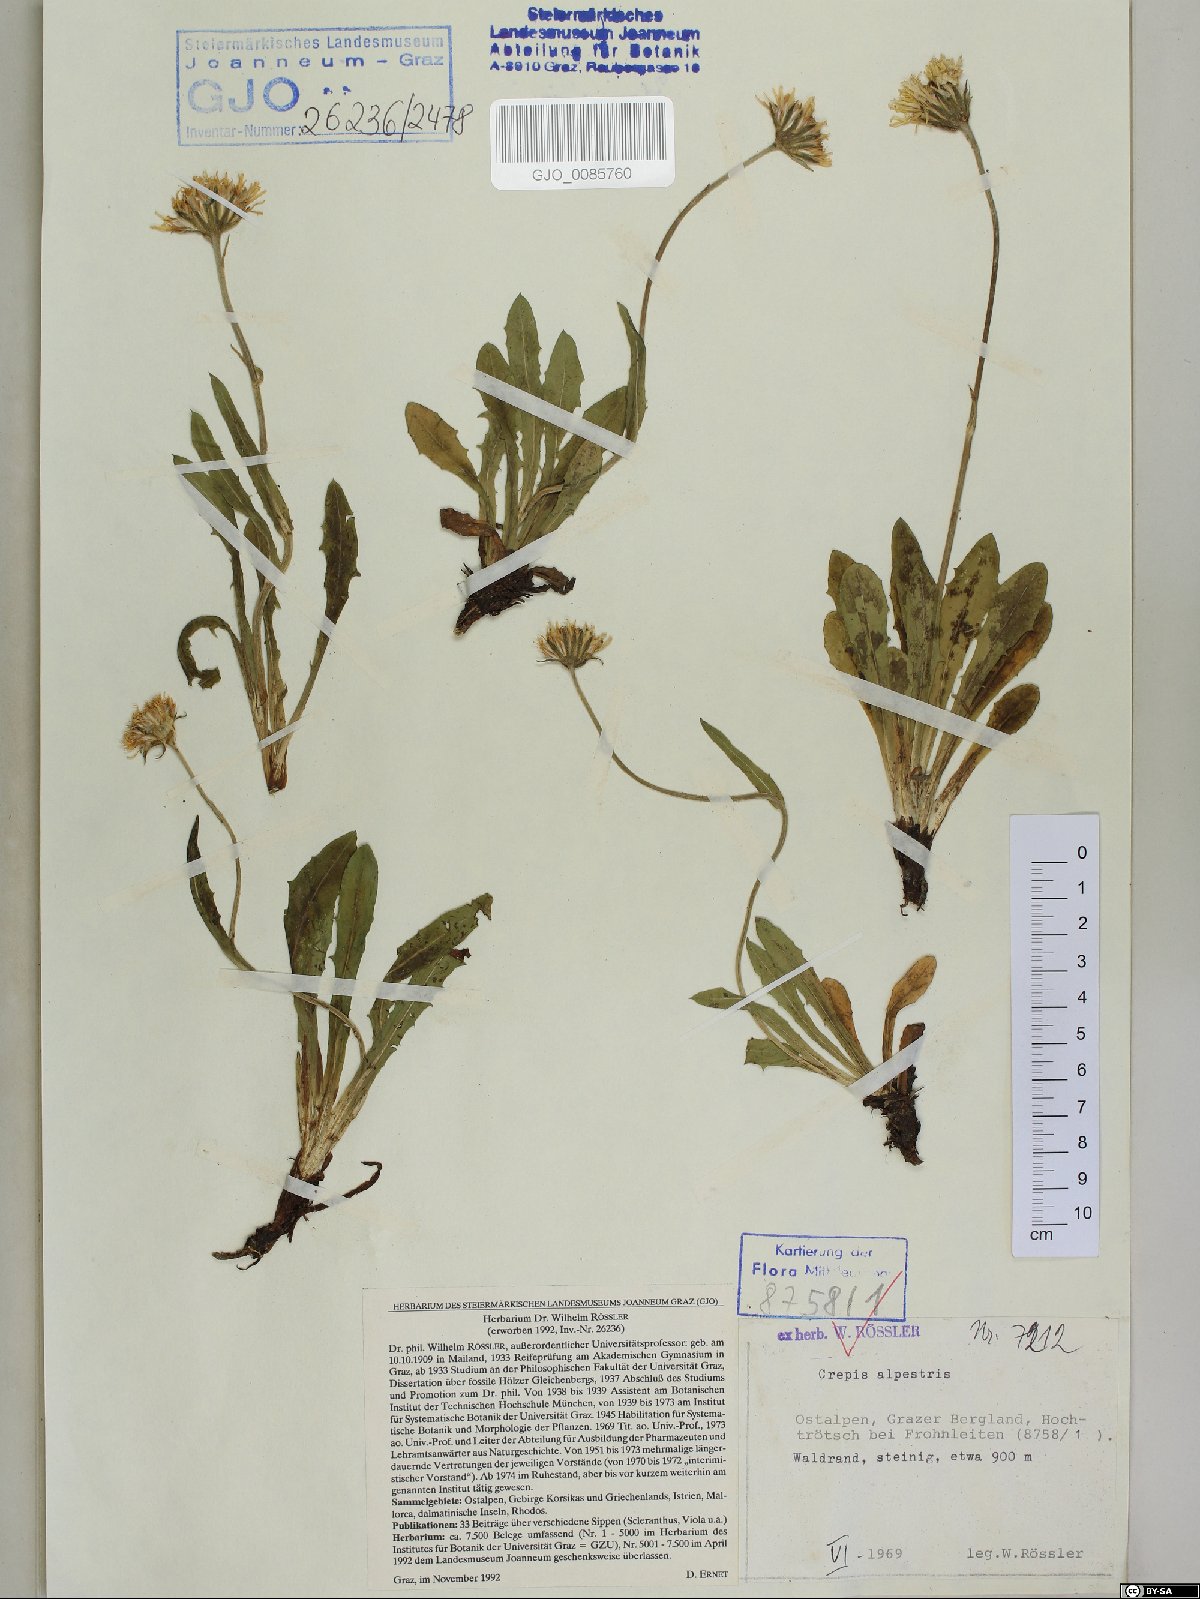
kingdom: Plantae
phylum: Tracheophyta
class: Magnoliopsida
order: Asterales
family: Asteraceae
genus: Crepis
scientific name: Crepis alpestris
